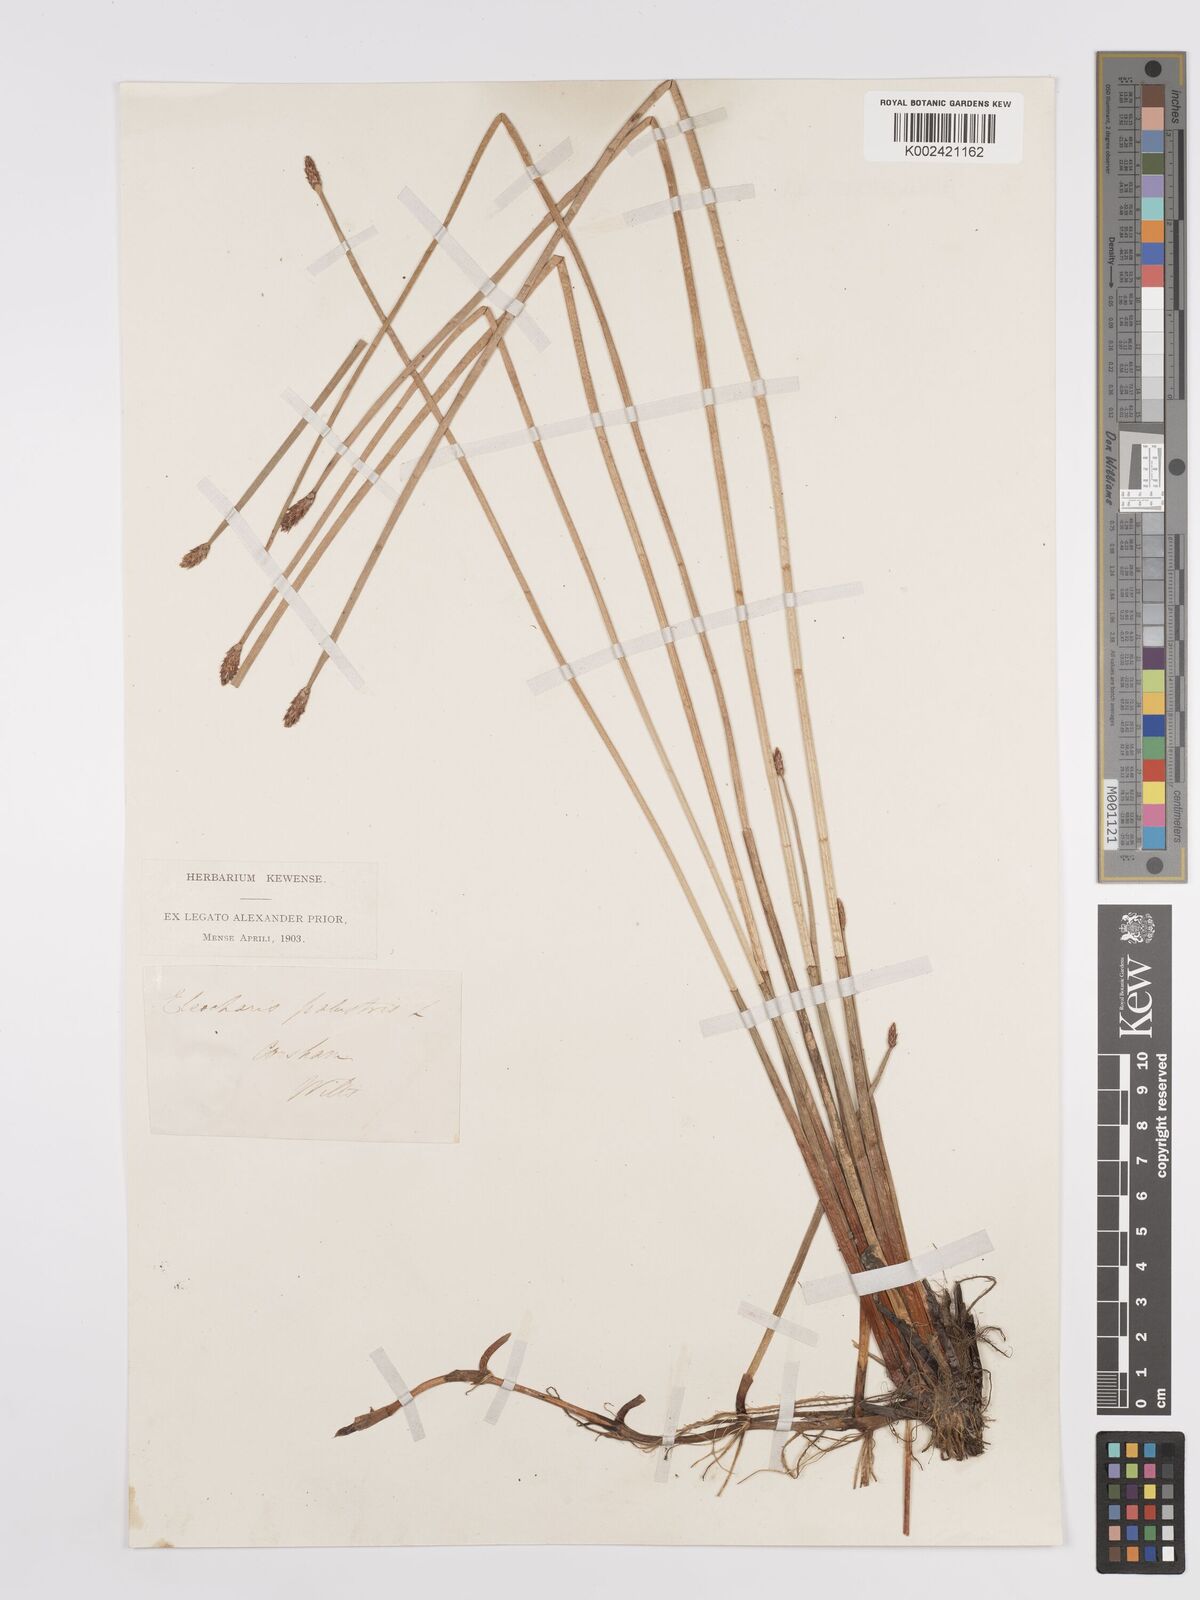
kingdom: Plantae
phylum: Tracheophyta
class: Liliopsida
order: Poales
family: Cyperaceae
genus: Eleocharis
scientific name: Eleocharis palustris
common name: Common spike-rush
